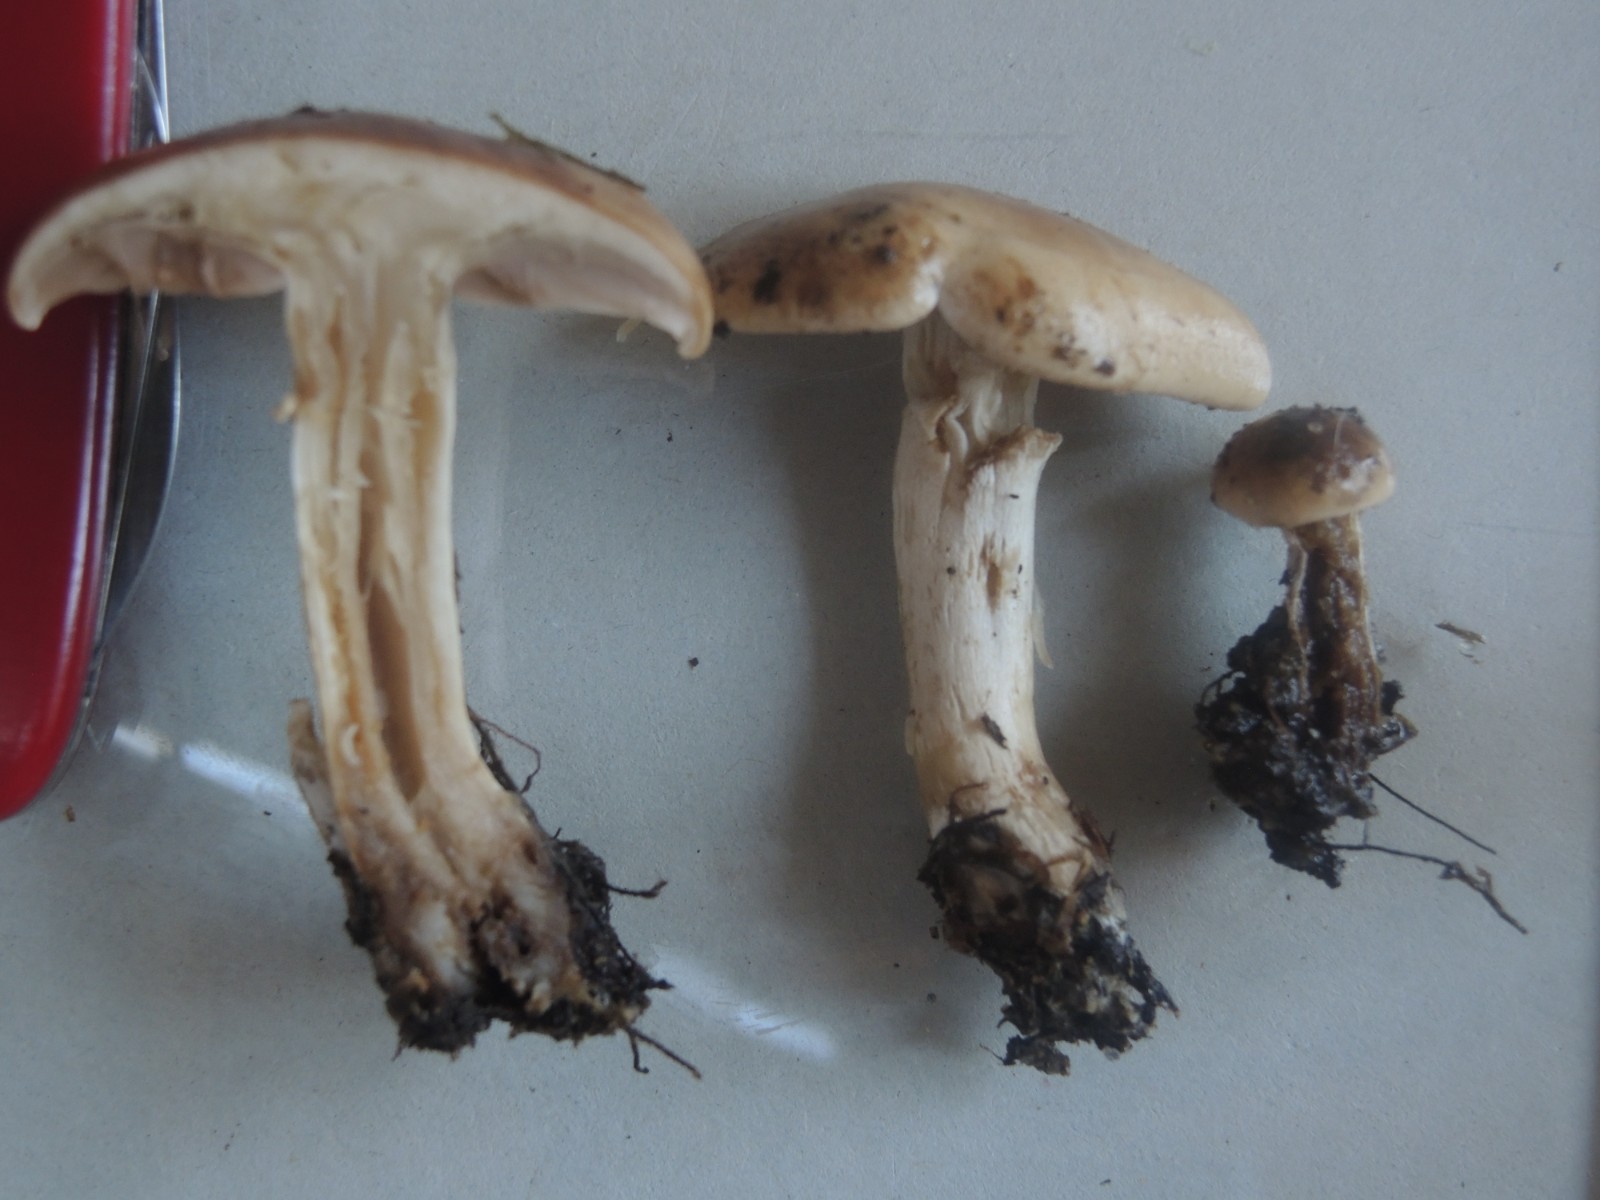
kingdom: Fungi
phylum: Basidiomycota
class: Agaricomycetes
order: Agaricales
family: Hymenogastraceae
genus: Hebeloma
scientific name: Hebeloma cylindrosporum
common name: fyrre-tåreblad
